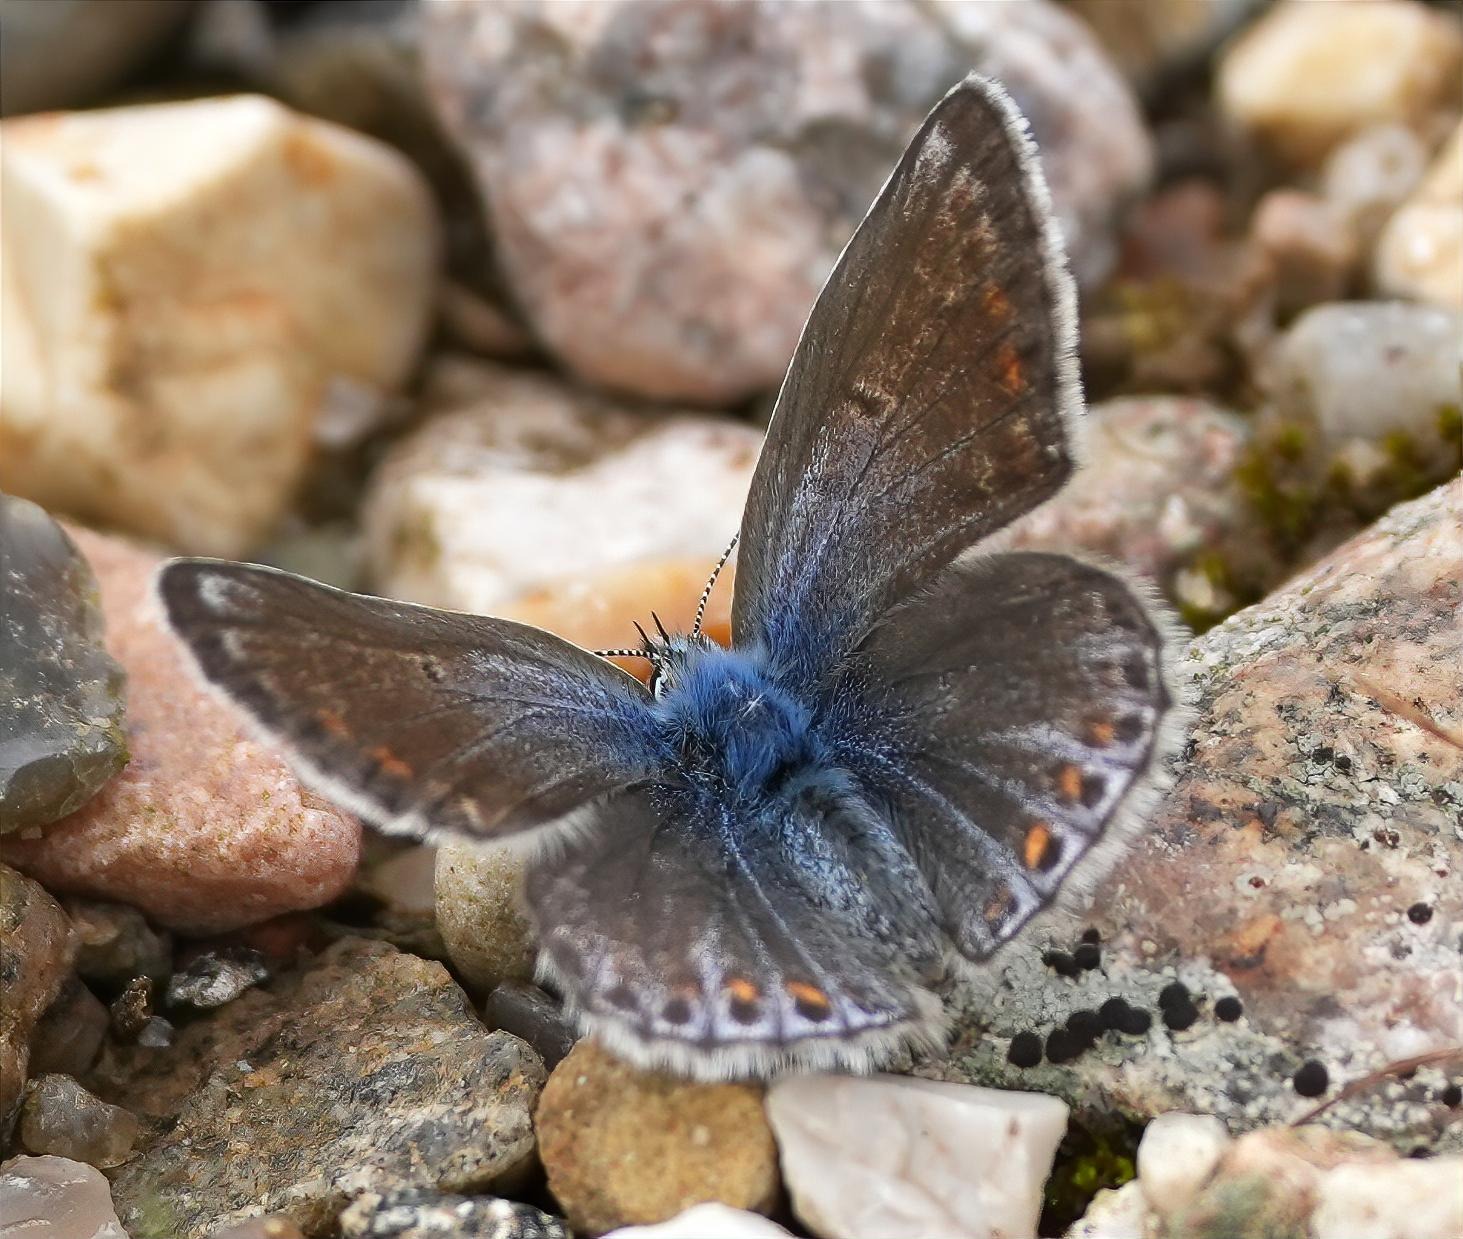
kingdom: Animalia
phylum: Arthropoda
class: Insecta
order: Lepidoptera
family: Lycaenidae
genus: Polyommatus
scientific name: Polyommatus icarus
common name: Almindelig blåfugl
